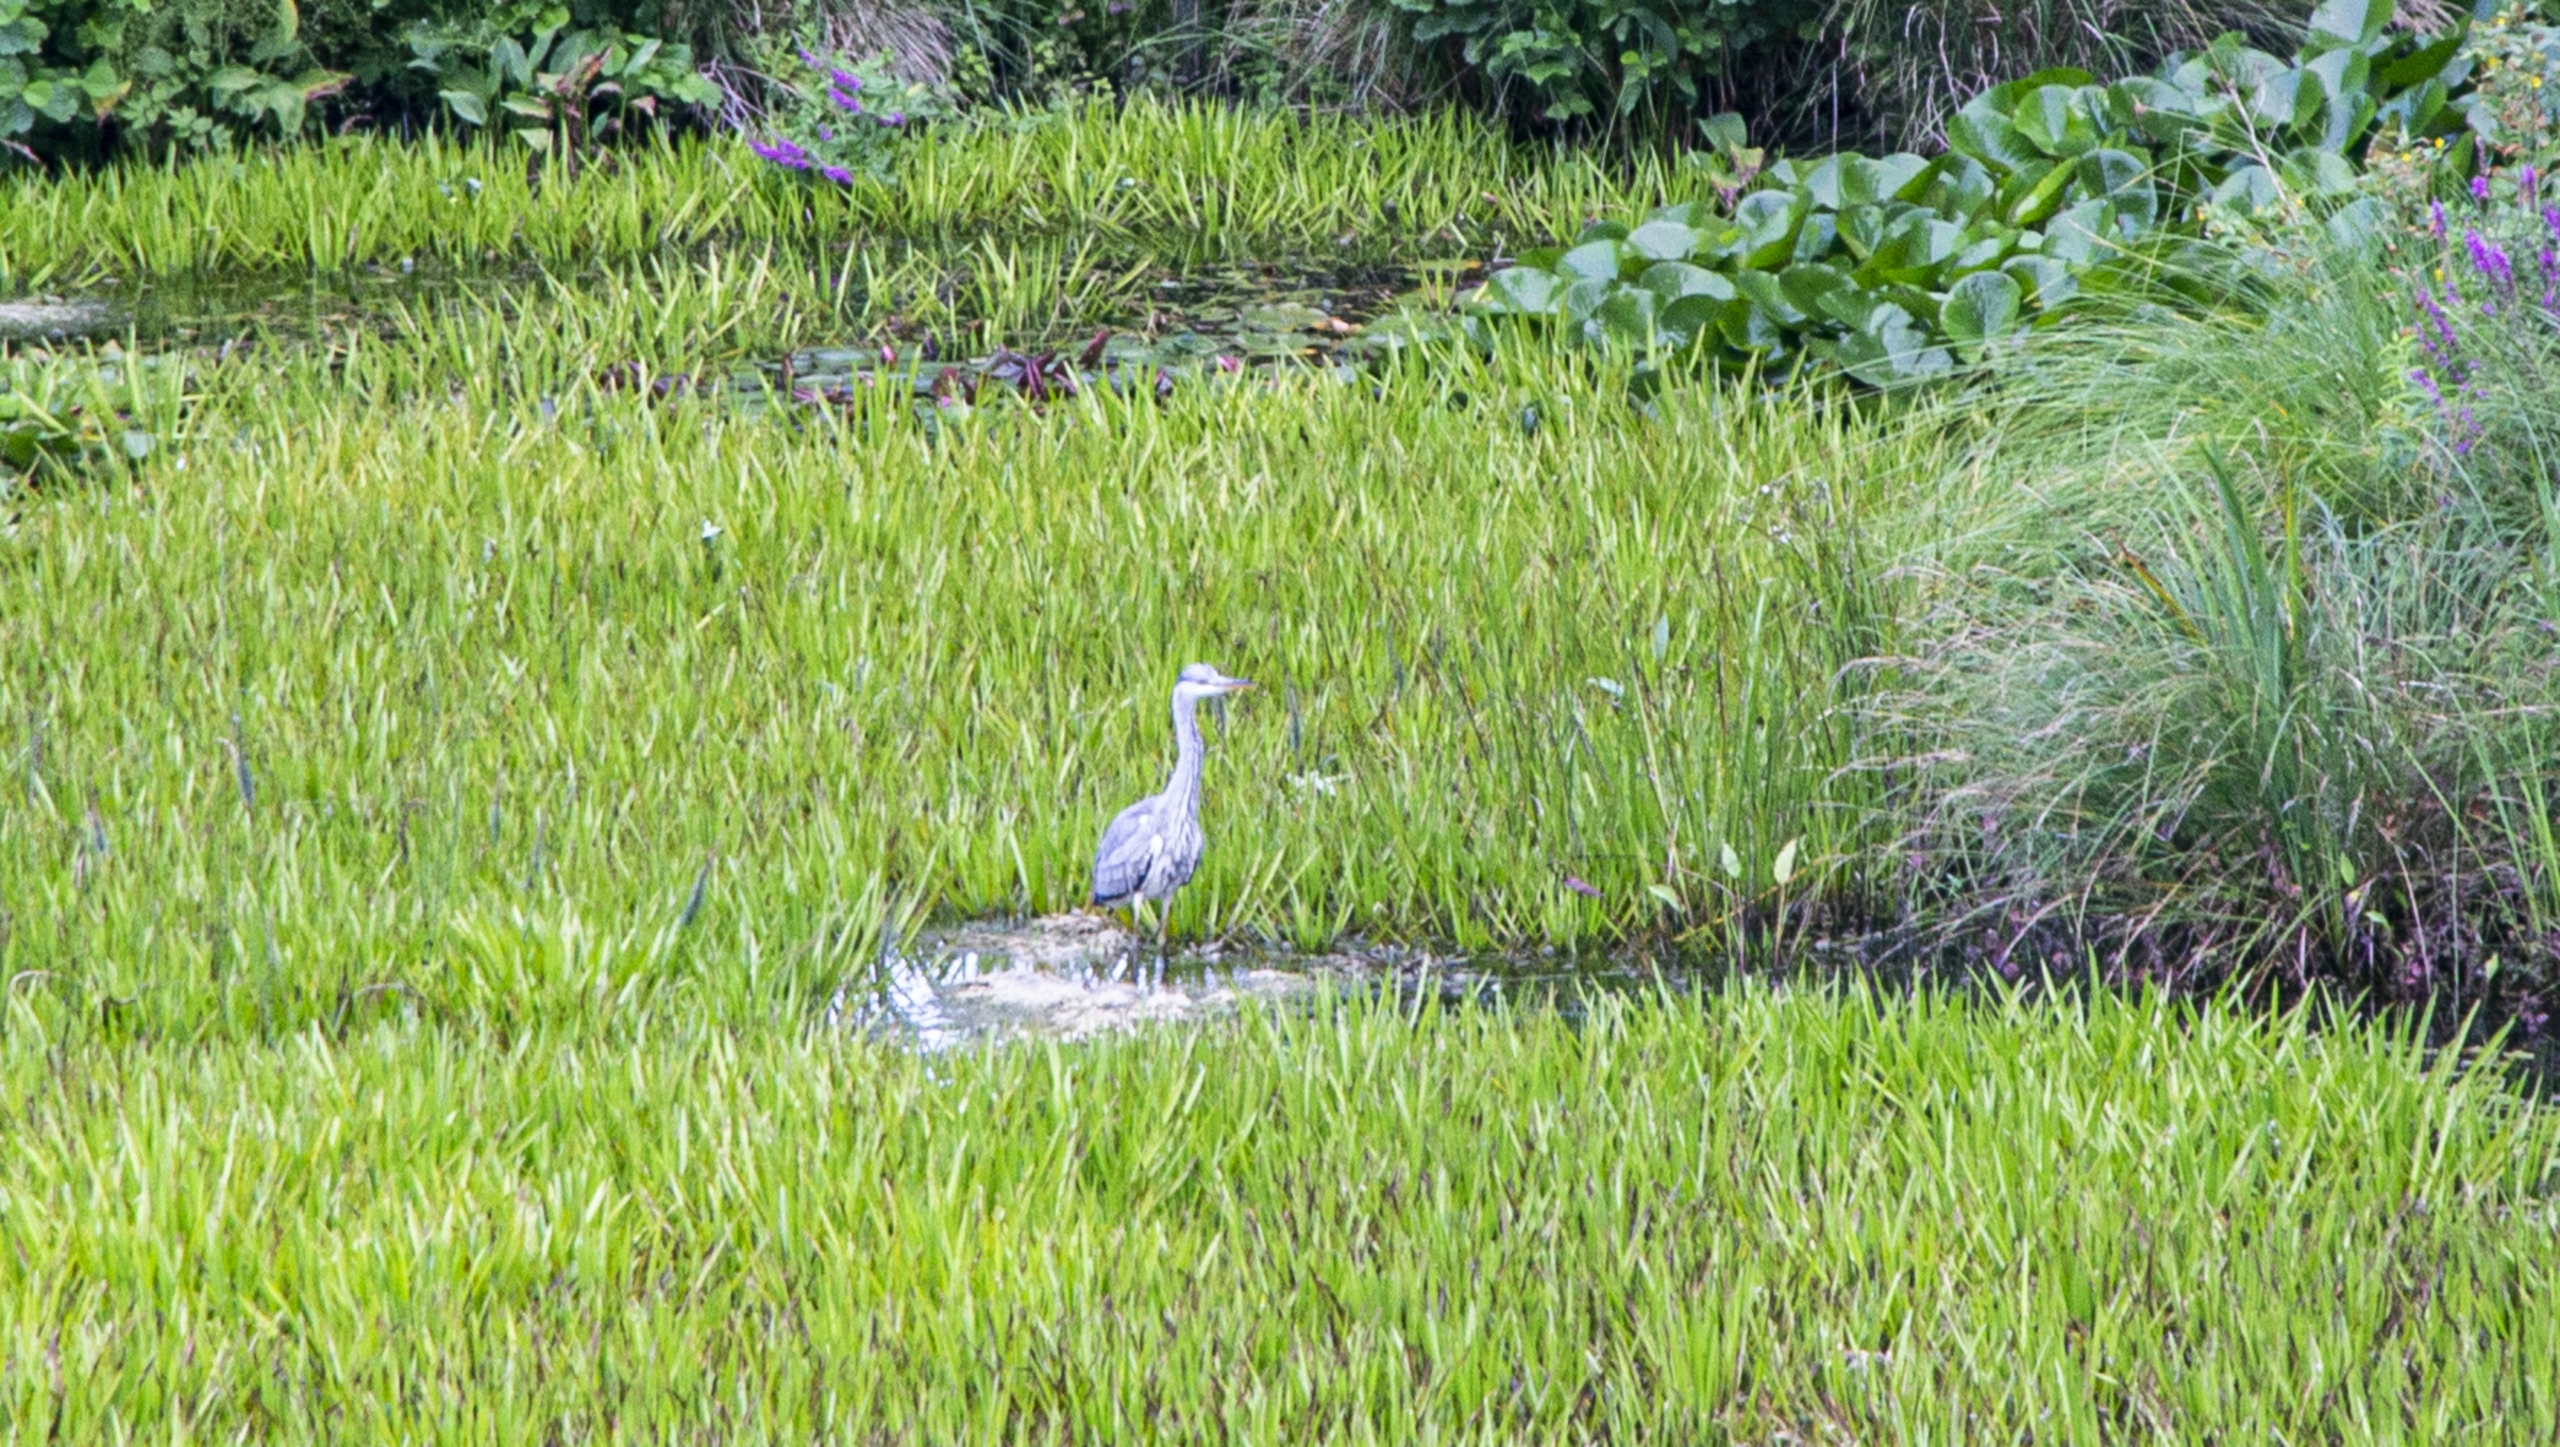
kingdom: Animalia
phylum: Chordata
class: Aves
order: Pelecaniformes
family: Ardeidae
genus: Ardea
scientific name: Ardea cinerea
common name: Fiskehejre
